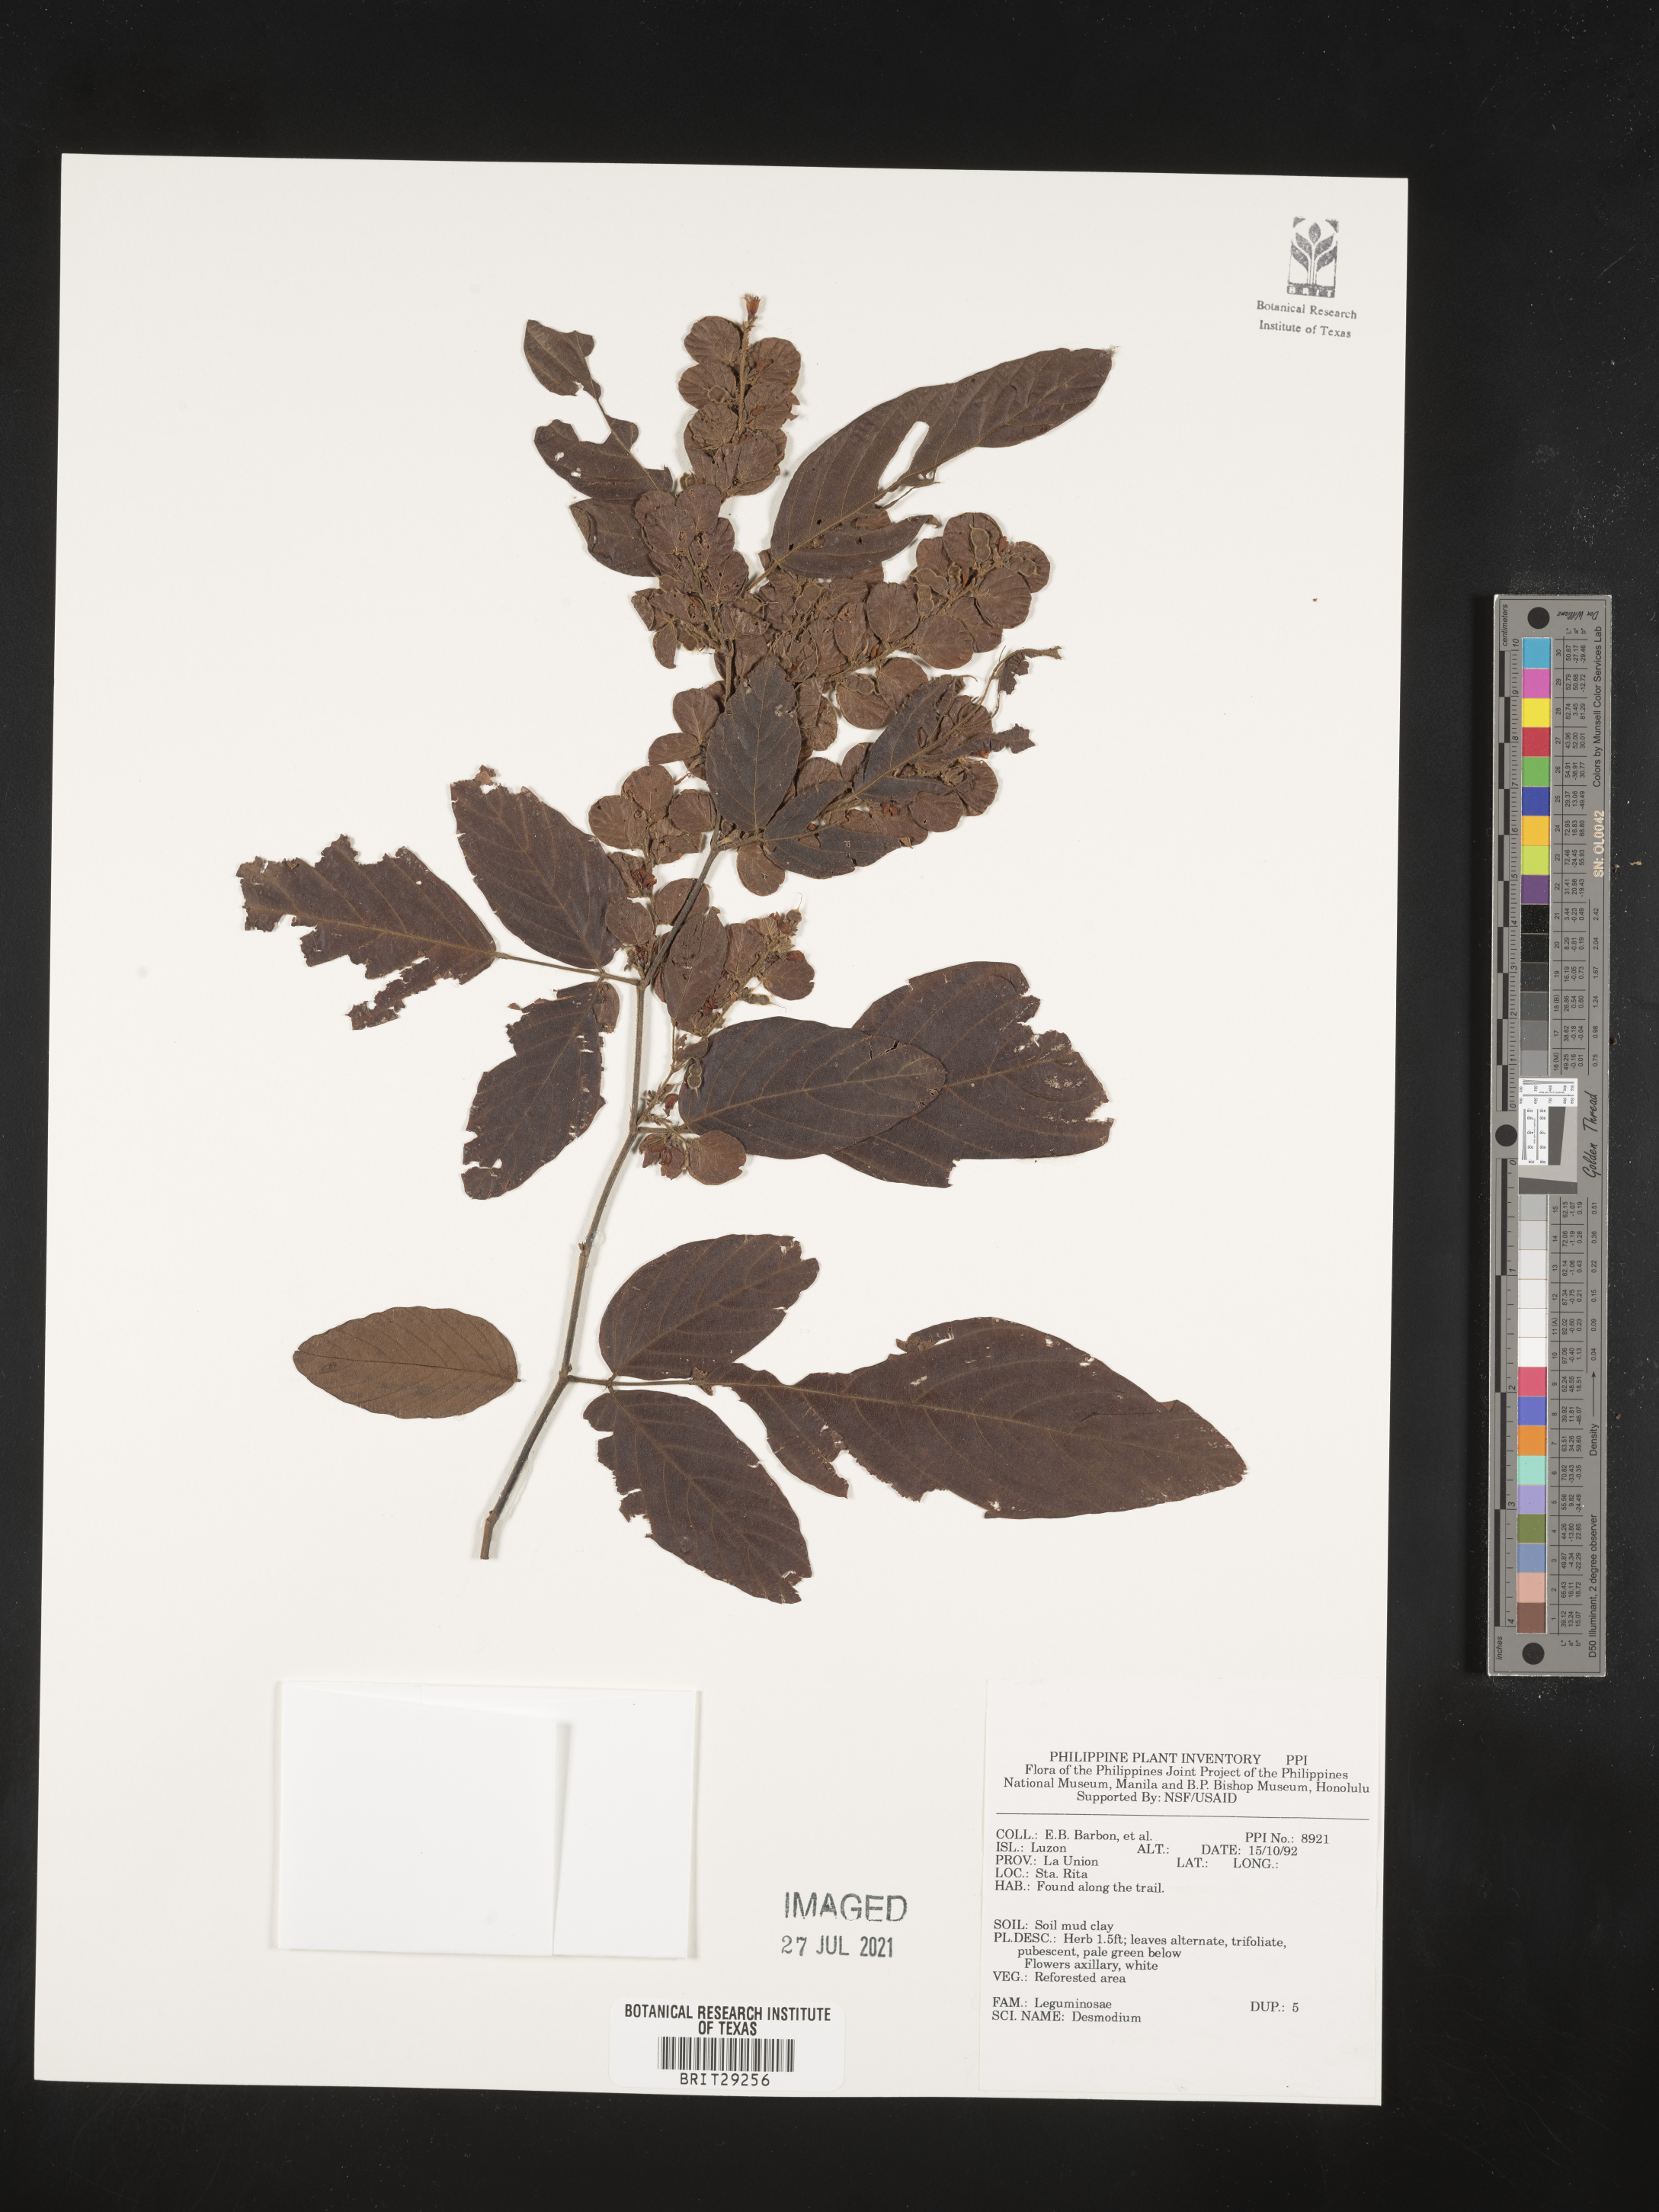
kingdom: Plantae
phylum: Tracheophyta
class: Magnoliopsida
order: Fabales
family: Fabaceae
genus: Desmodium
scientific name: Desmodium
